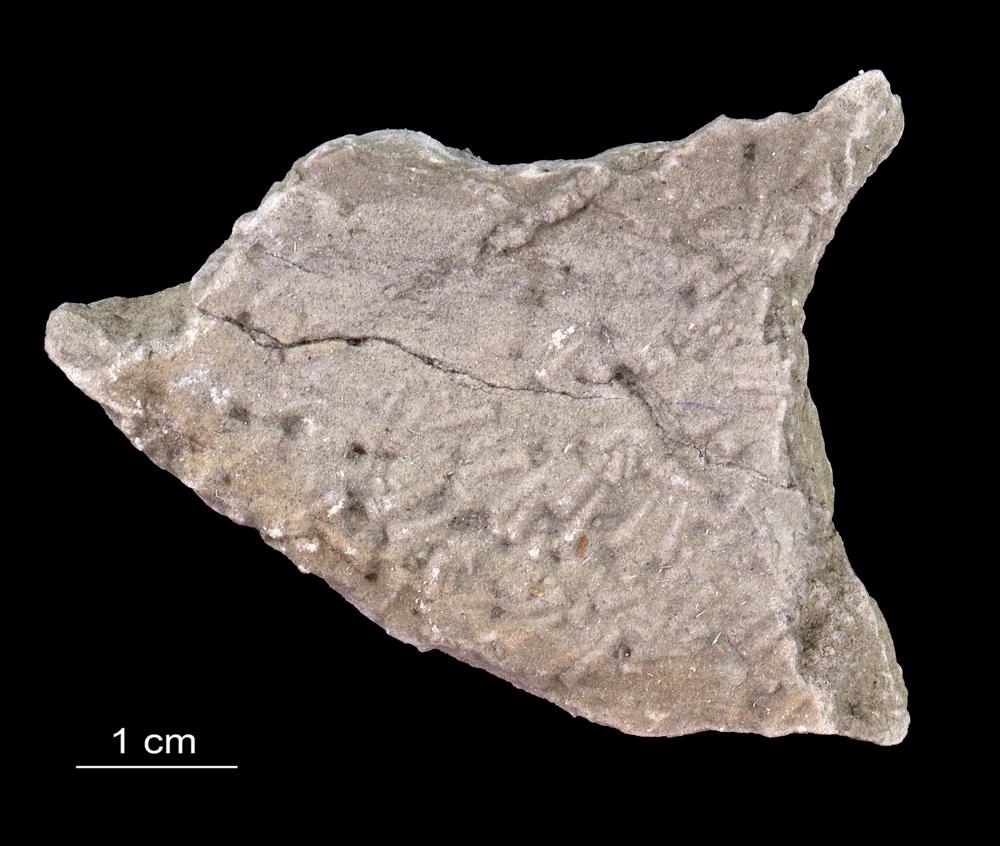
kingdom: Animalia
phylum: Annelida
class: Polychaeta
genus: Volborthella
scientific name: Volborthella tenuis
